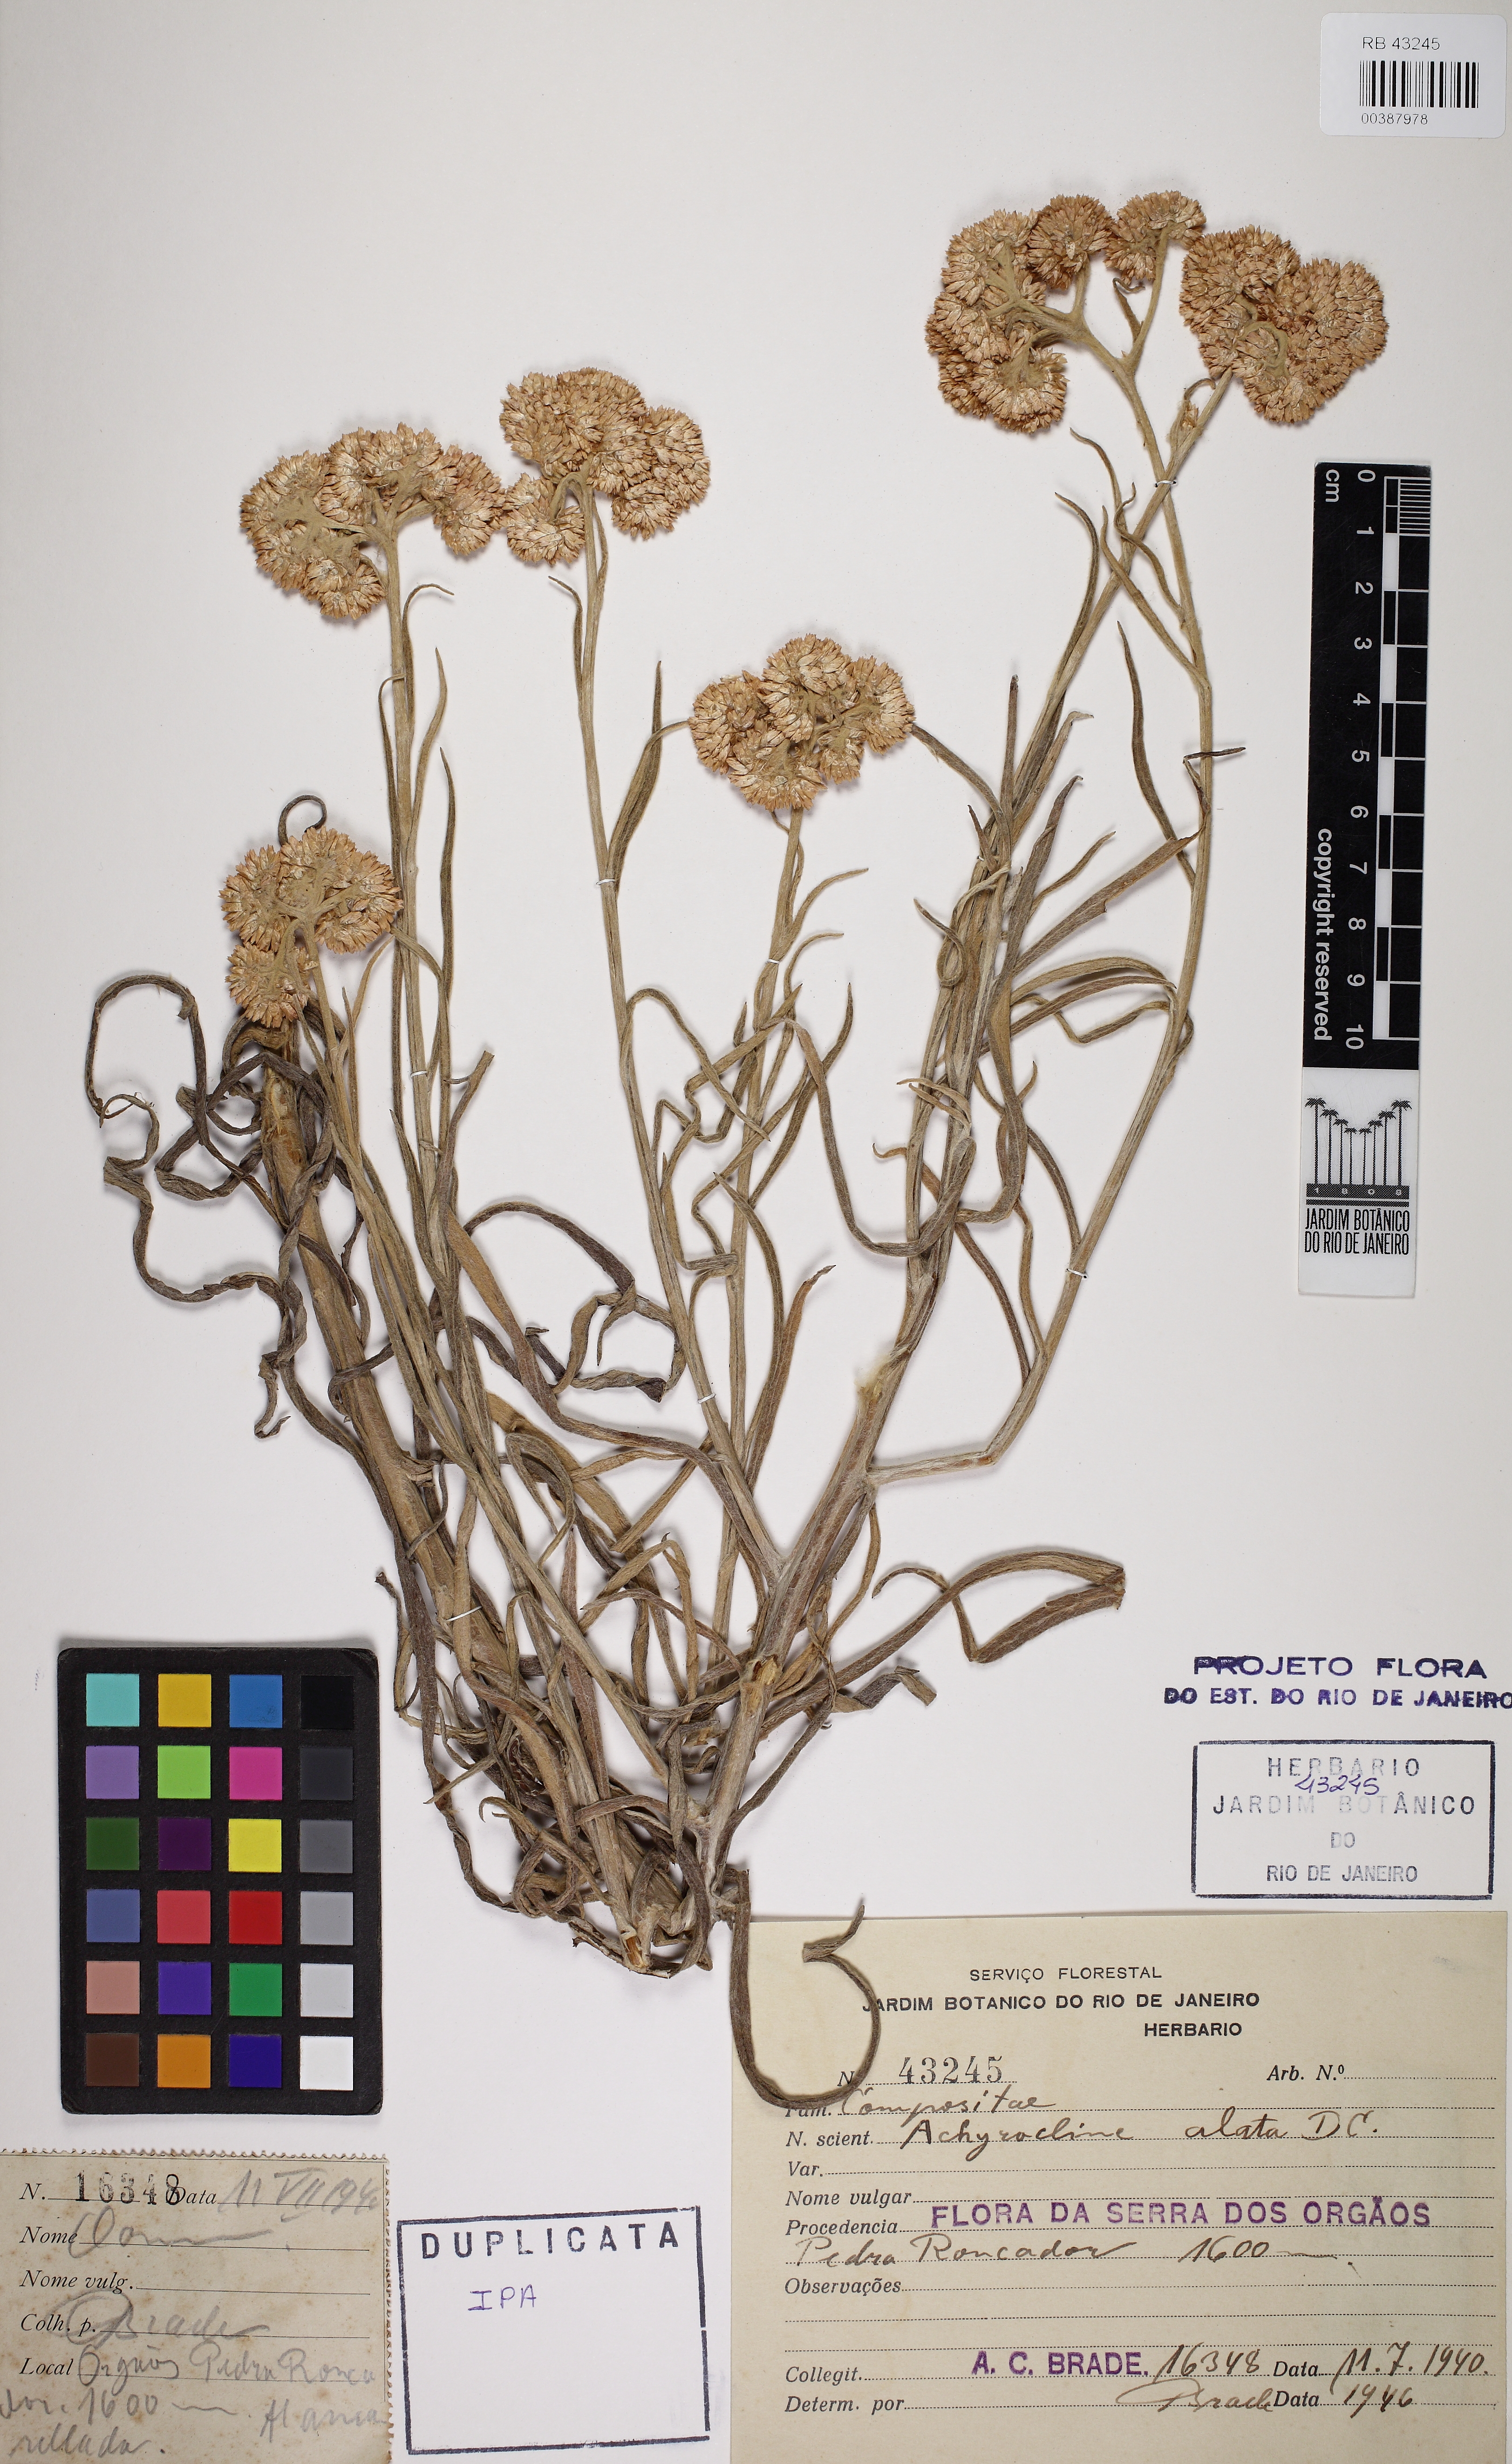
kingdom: Plantae
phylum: Tracheophyta
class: Magnoliopsida
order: Asterales
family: Asteraceae
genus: Achyrocline
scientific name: Achyrocline alata
